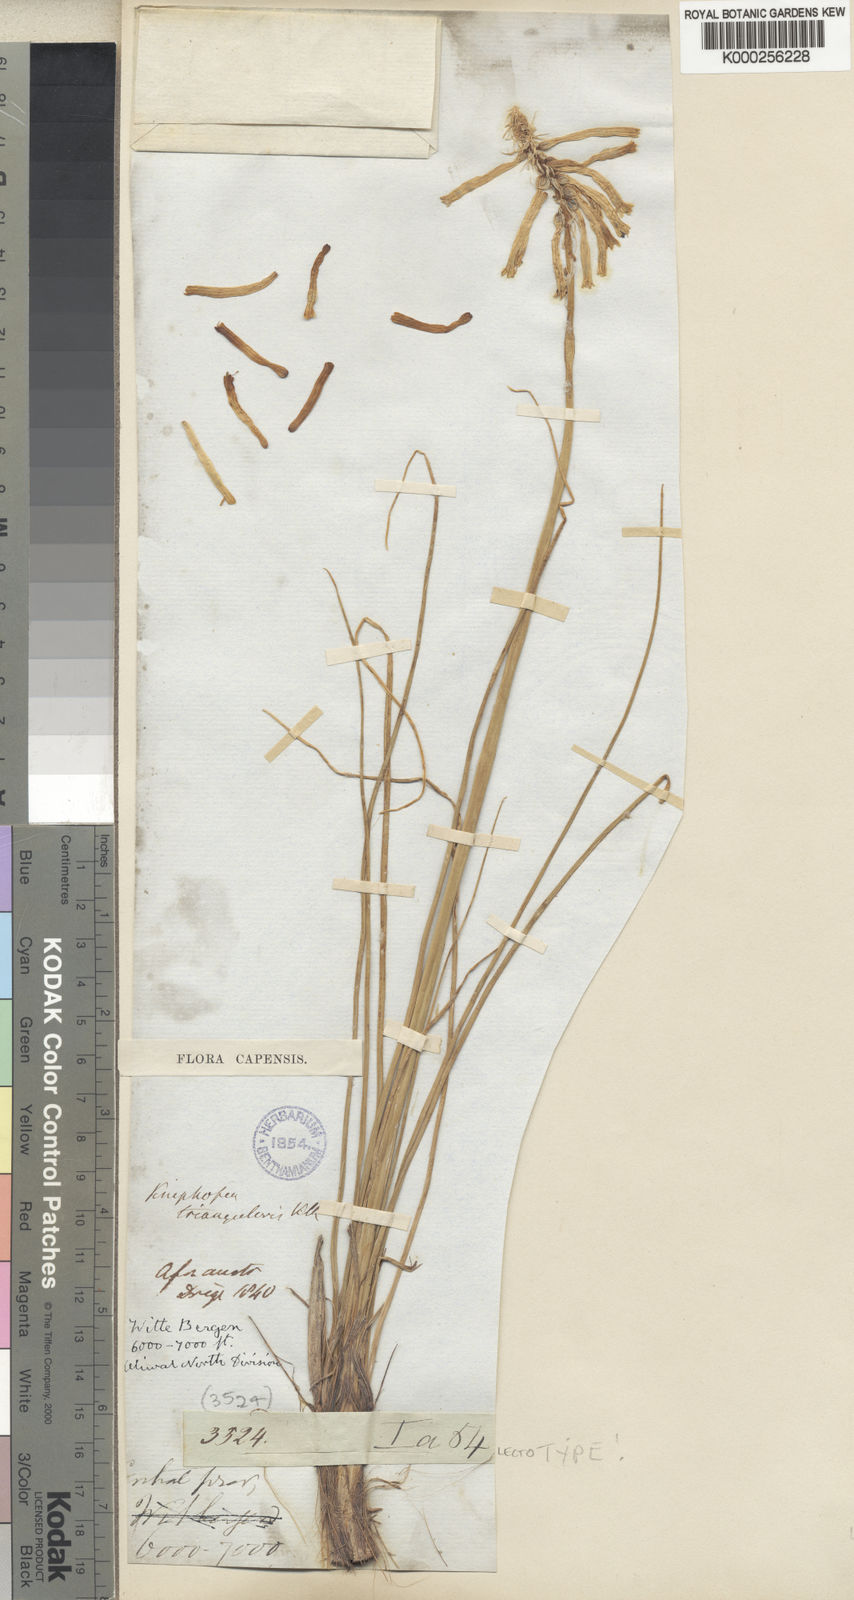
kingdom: Plantae
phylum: Tracheophyta
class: Liliopsida
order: Asparagales
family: Asphodelaceae
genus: Kniphofia
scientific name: Kniphofia triangularis
